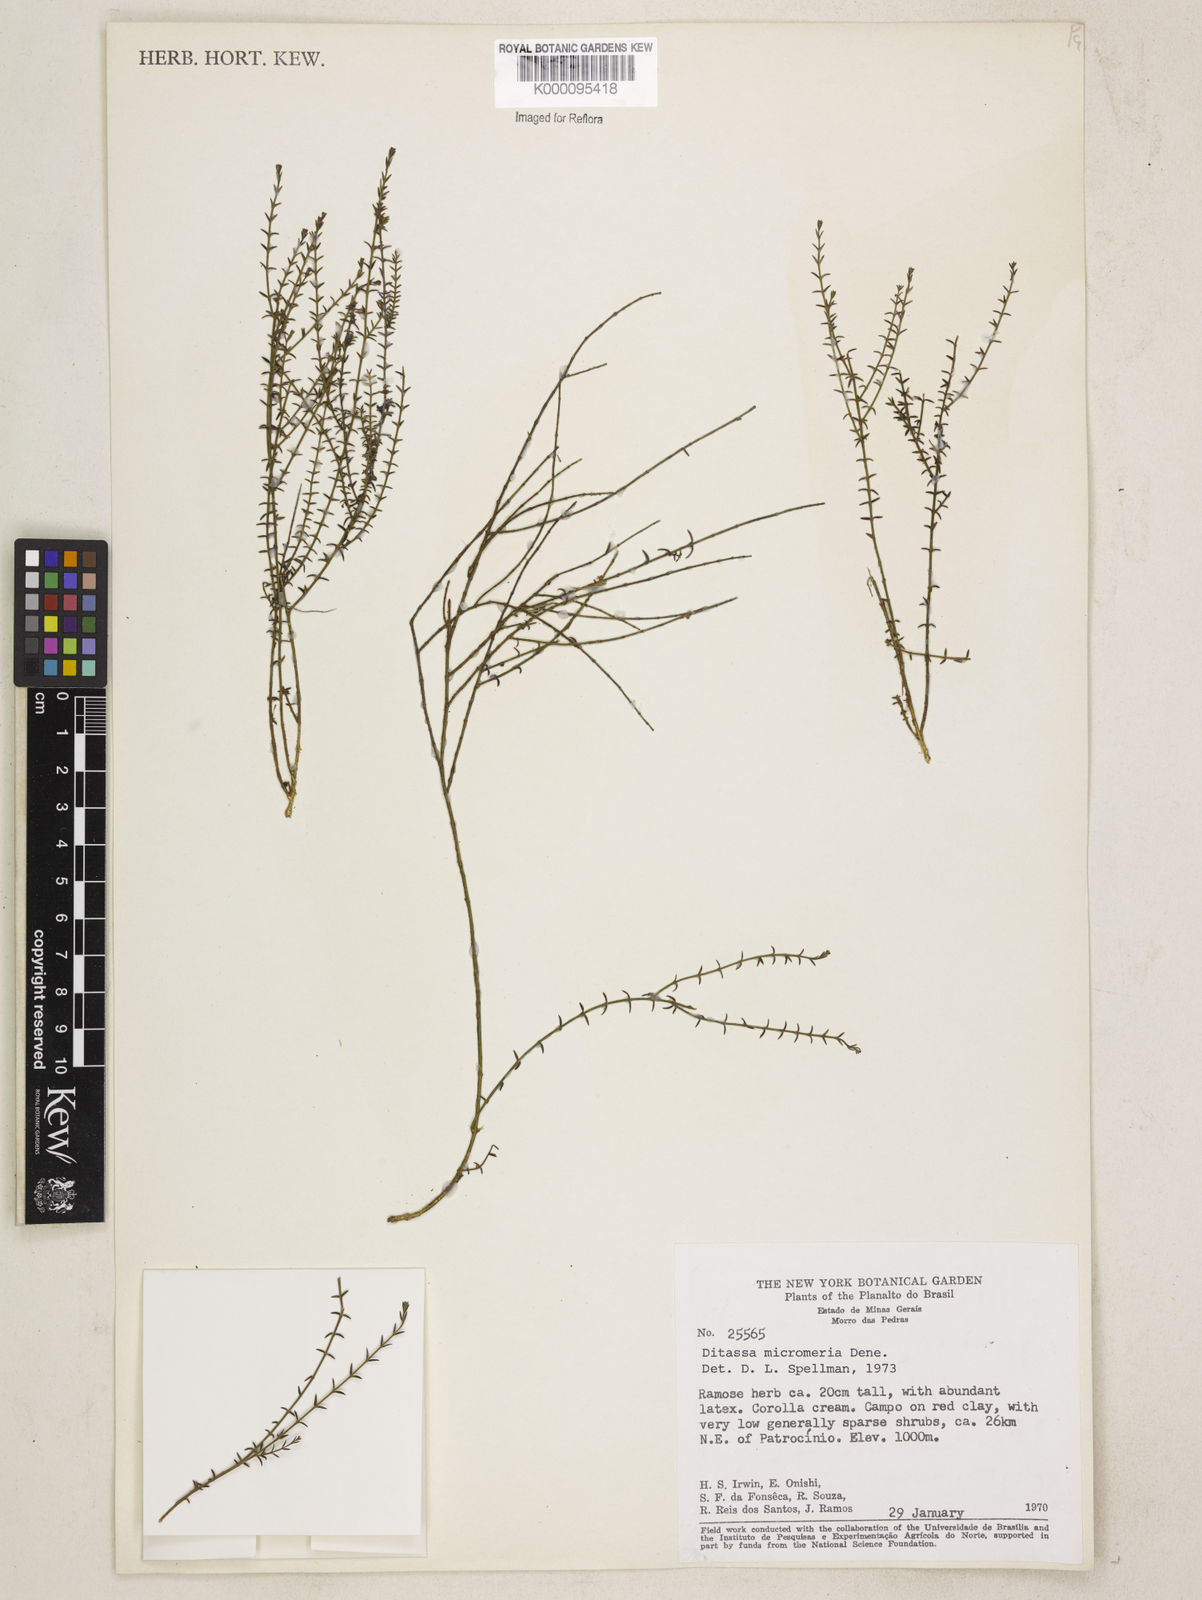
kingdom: Plantae
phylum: Tracheophyta
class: Magnoliopsida
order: Gentianales
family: Apocynaceae
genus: Minaria
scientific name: Minaria micromeria
